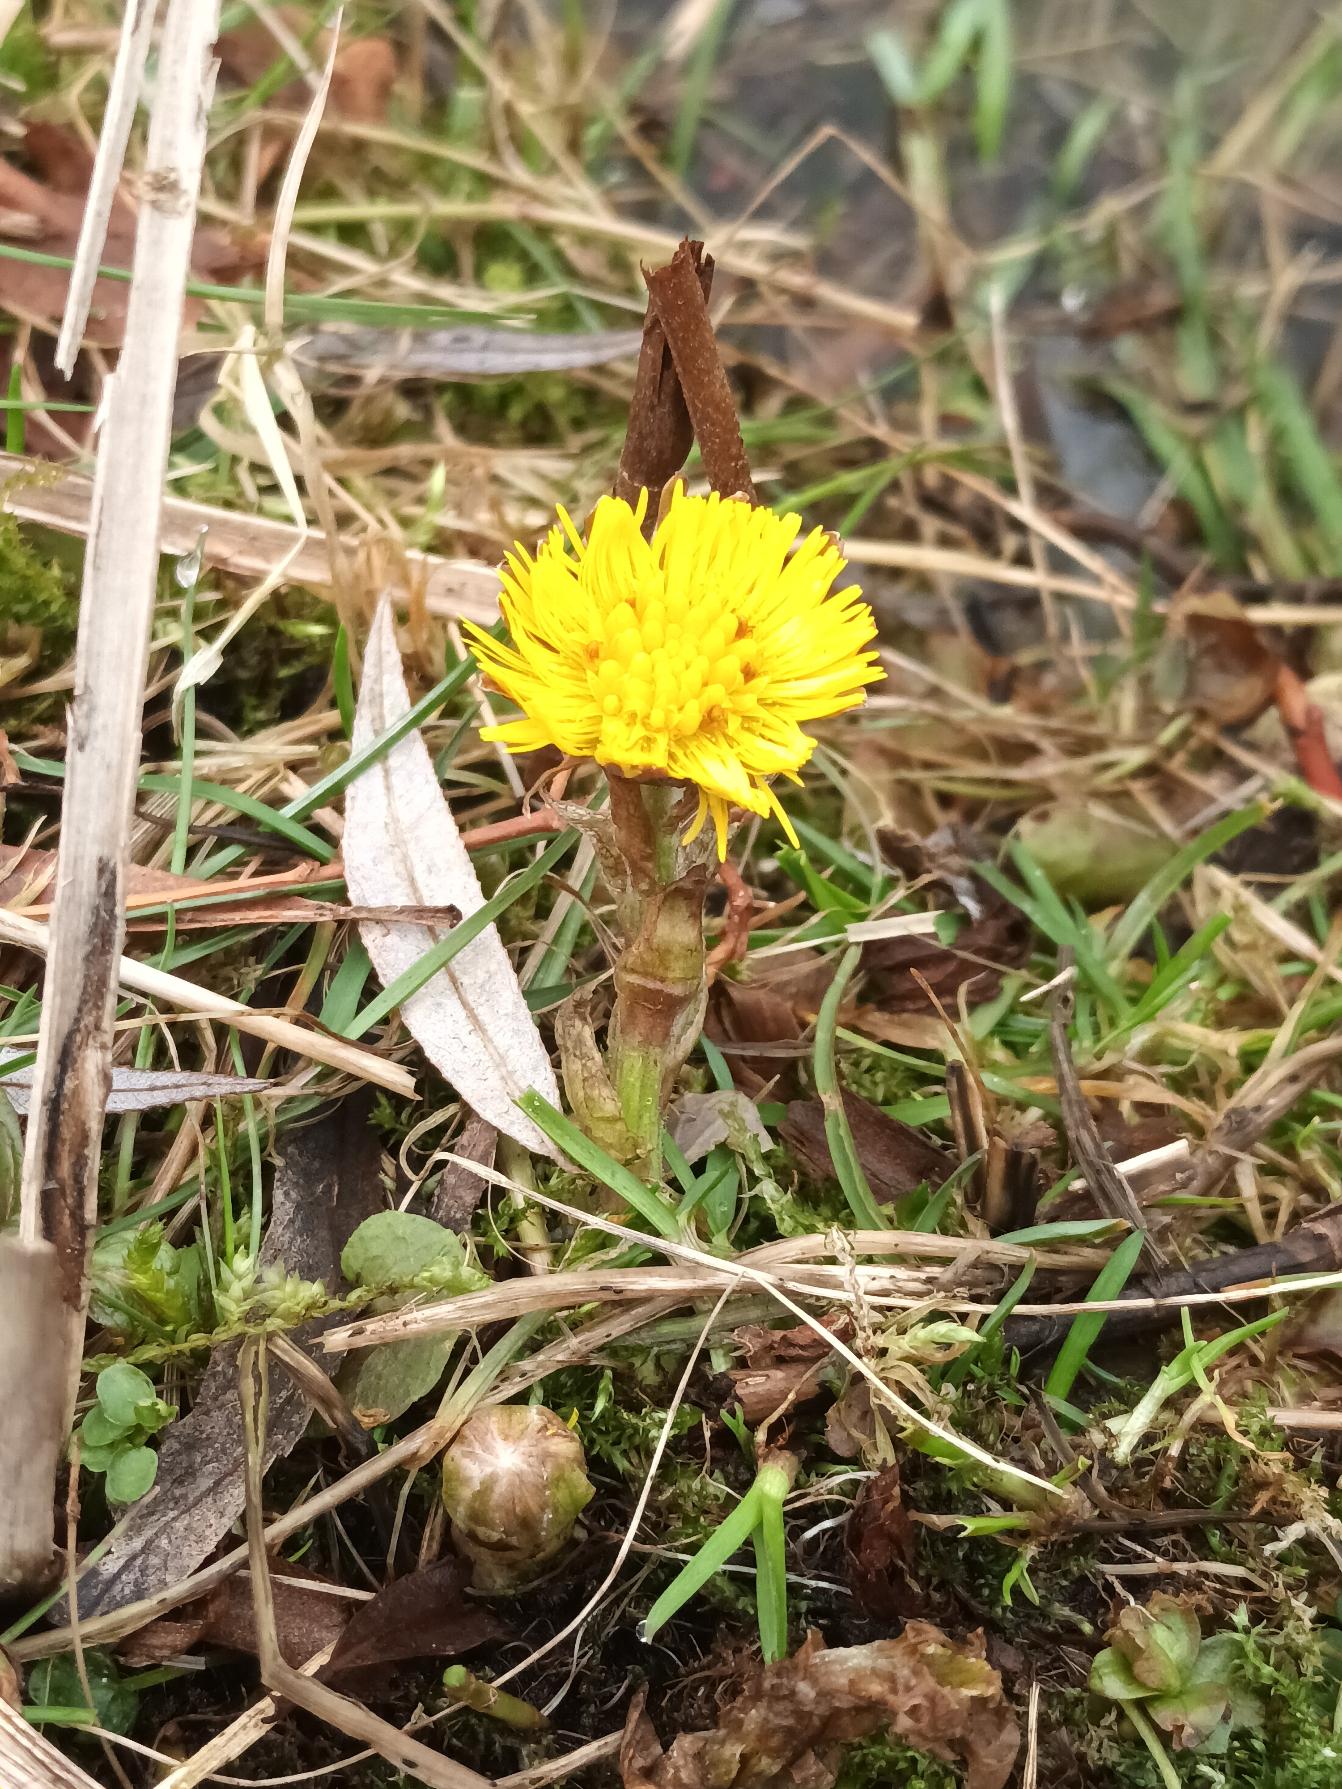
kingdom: Plantae
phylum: Tracheophyta
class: Magnoliopsida
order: Asterales
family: Asteraceae
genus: Tussilago
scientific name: Tussilago farfara
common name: Følfod
